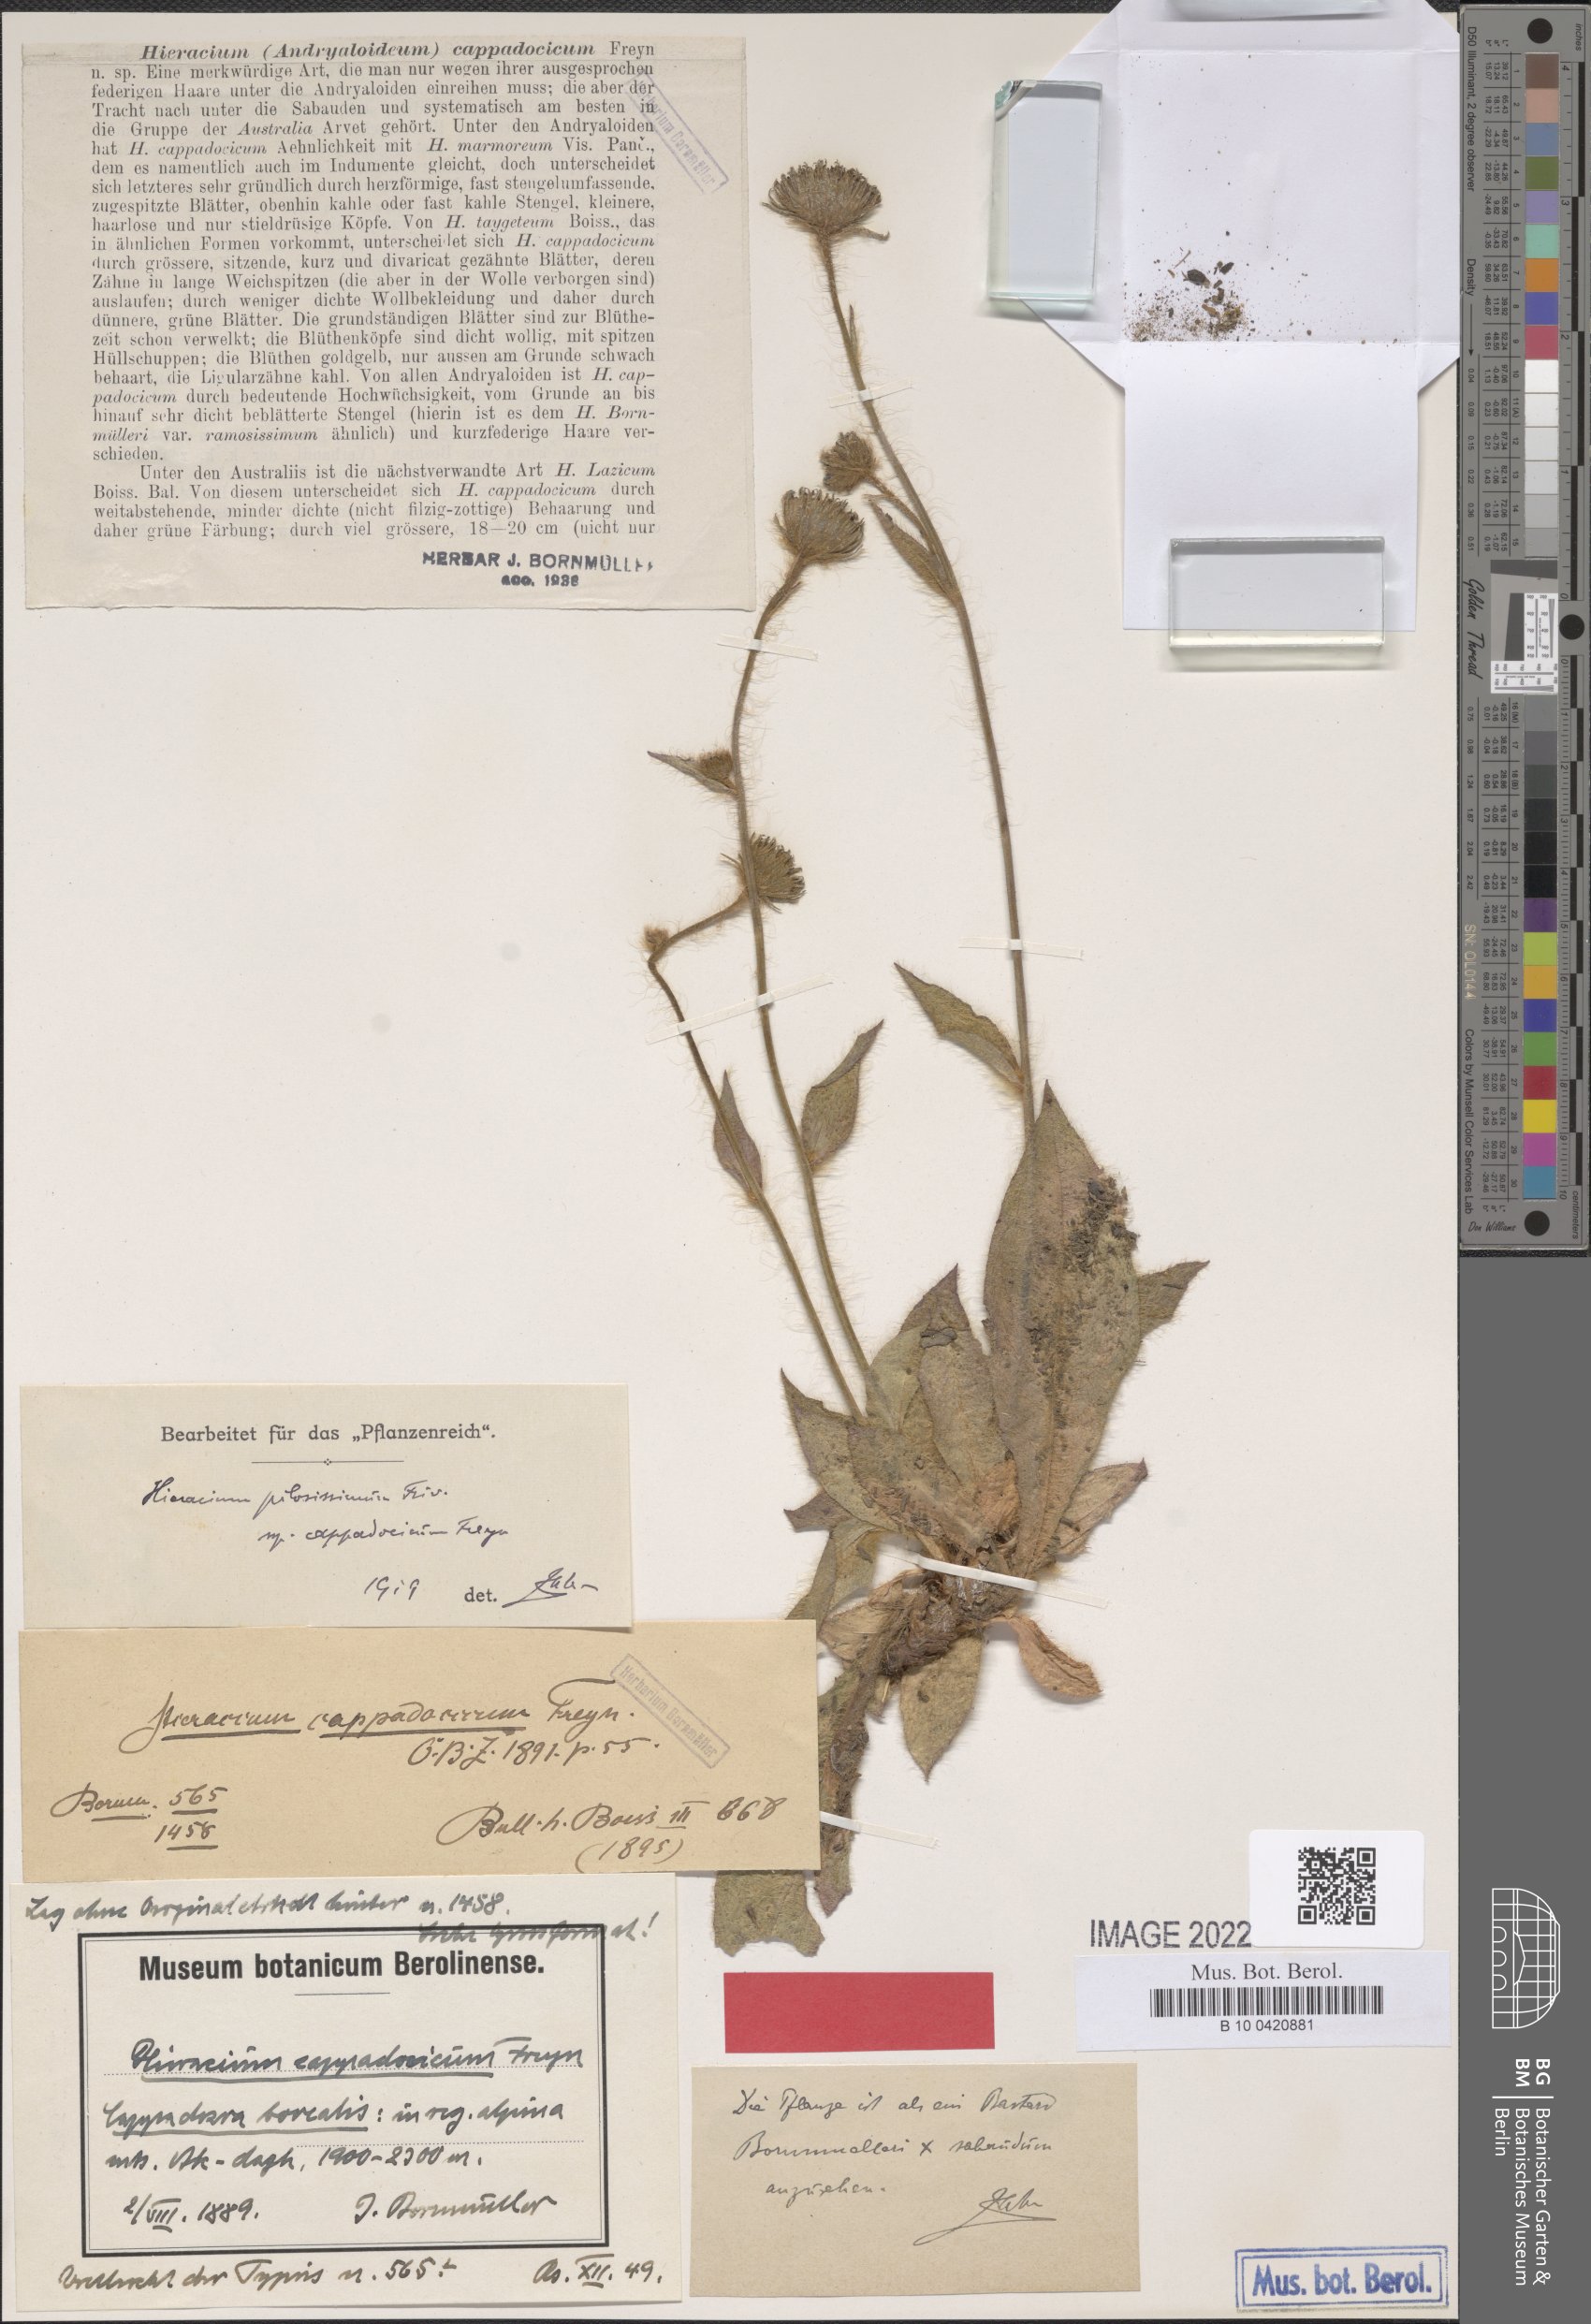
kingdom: Plantae
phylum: Tracheophyta
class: Magnoliopsida
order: Asterales
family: Asteraceae
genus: Hieracium
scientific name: Hieracium chalcidicum
